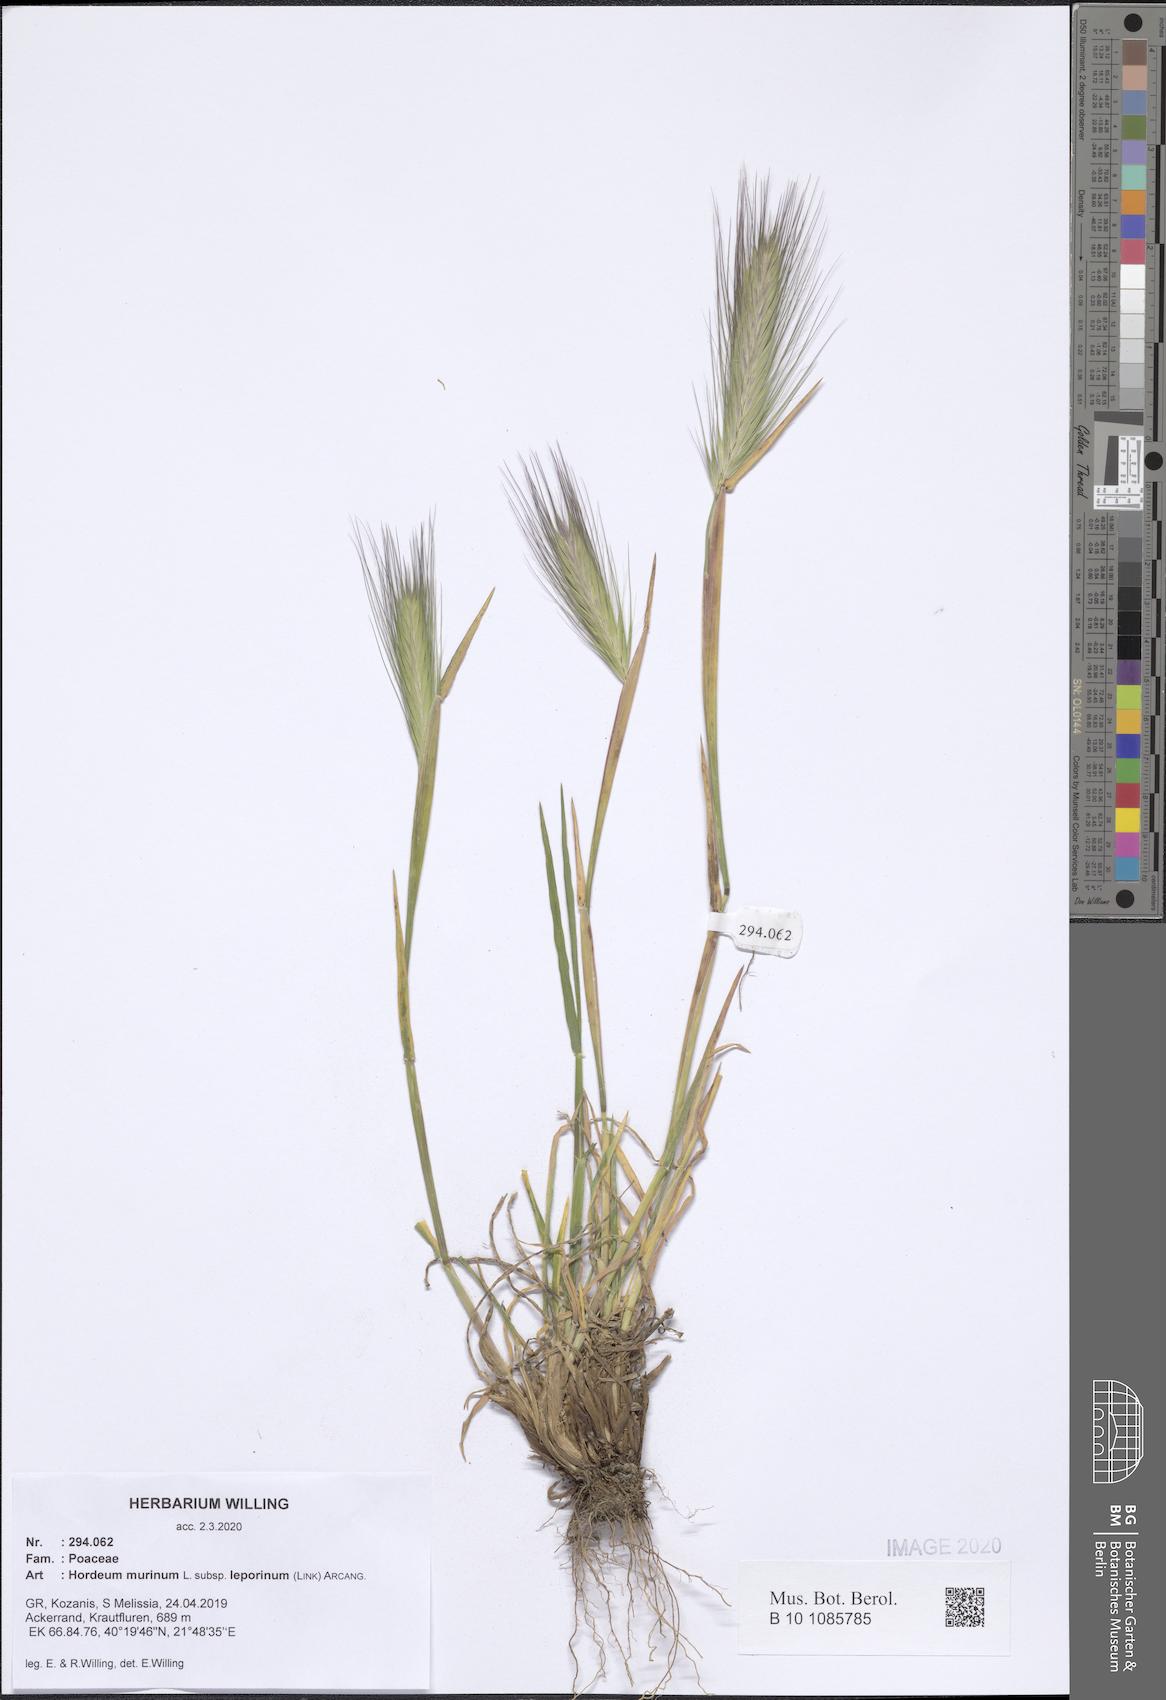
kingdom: Plantae
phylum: Tracheophyta
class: Liliopsida
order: Poales
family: Poaceae
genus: Hordeum
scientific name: Hordeum murinum
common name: Wall barley
